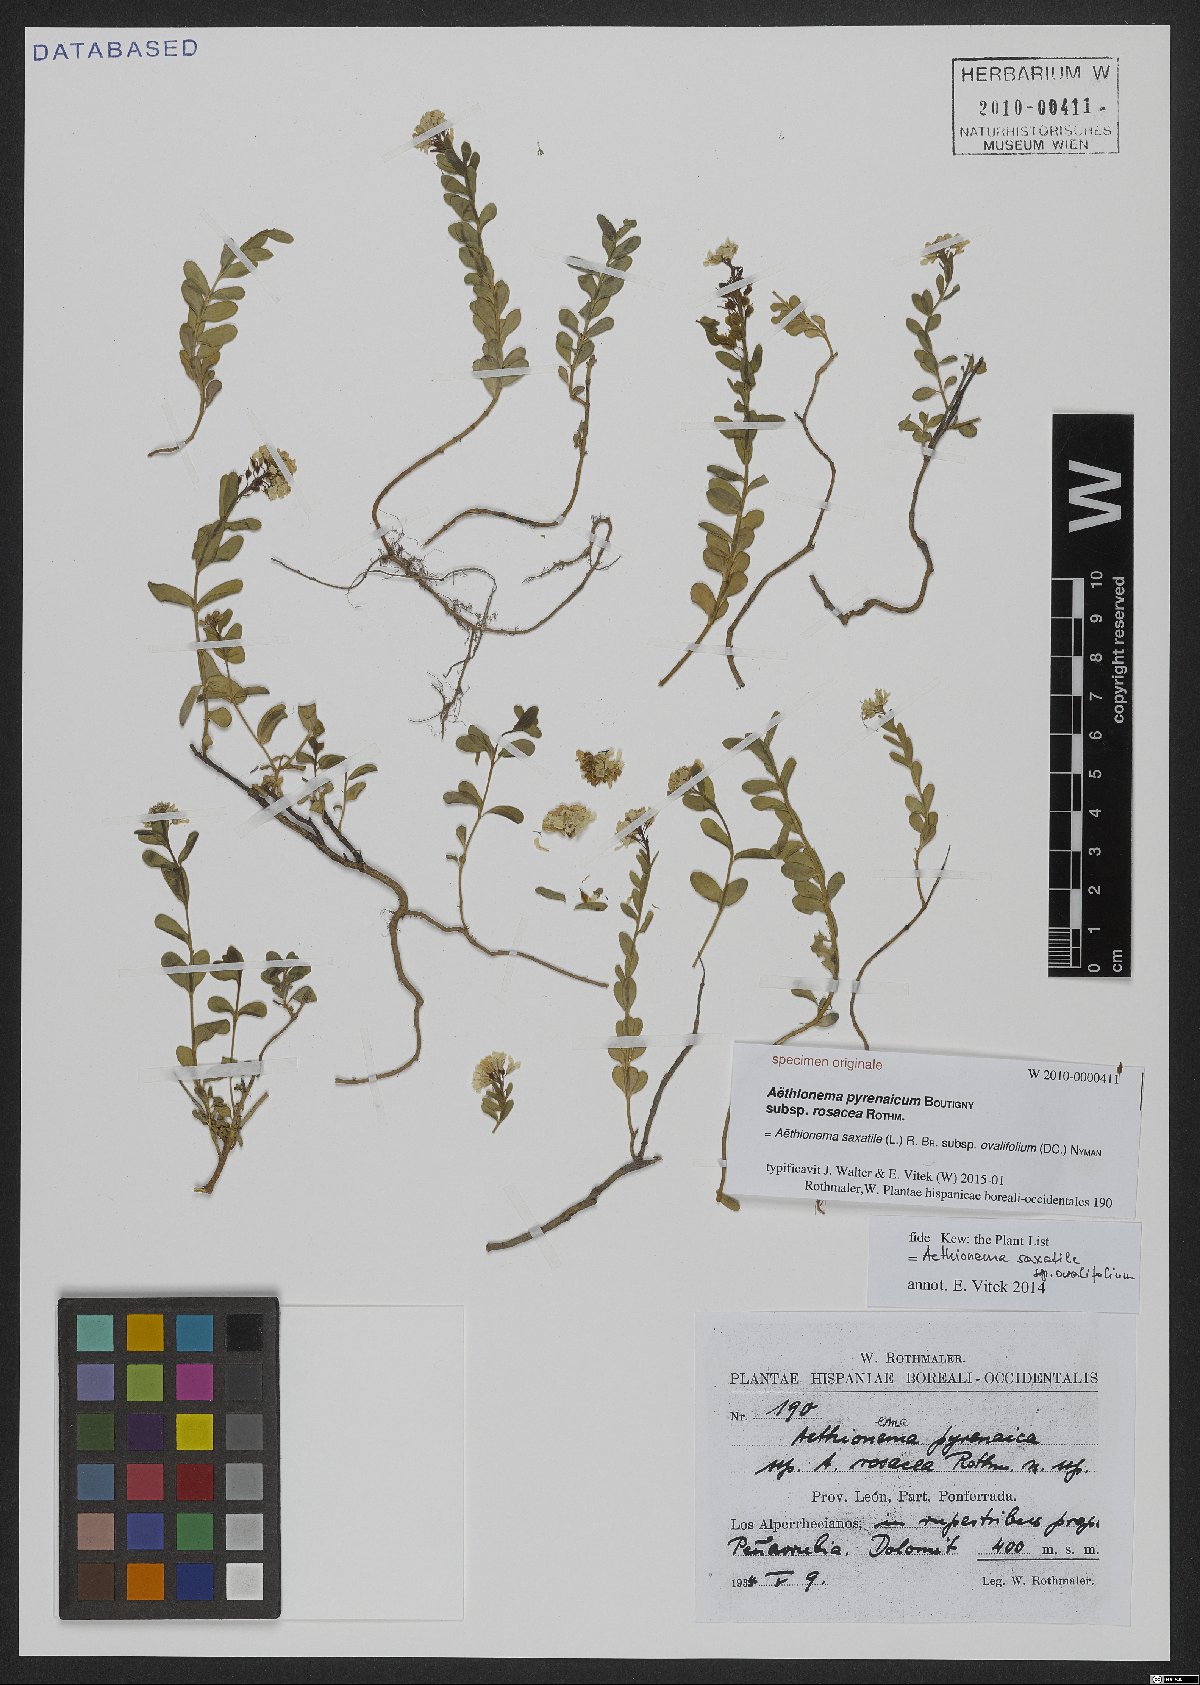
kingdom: Plantae
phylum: Tracheophyta
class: Magnoliopsida
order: Brassicales
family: Brassicaceae
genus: Aethionema
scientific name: Aethionema saxatile
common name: Burnt candytuft
